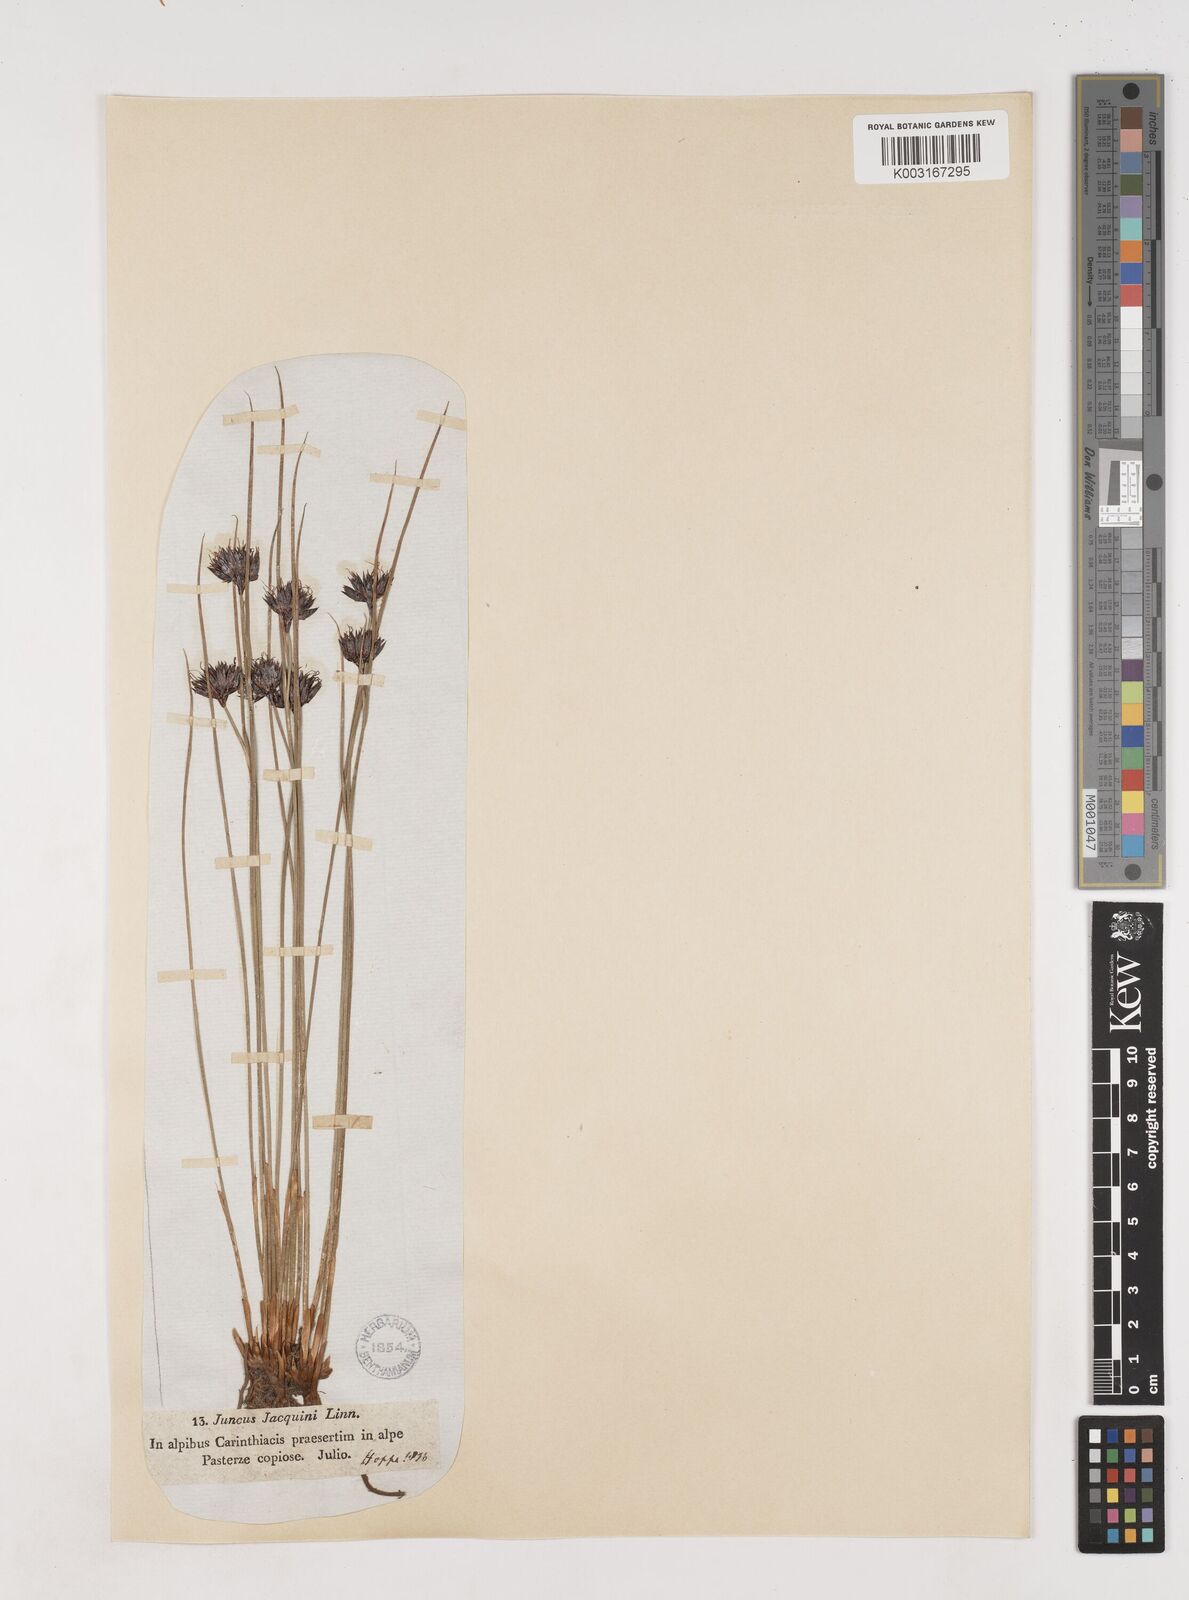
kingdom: Plantae
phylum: Tracheophyta
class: Liliopsida
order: Poales
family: Juncaceae
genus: Juncus
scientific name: Juncus jacquinii
